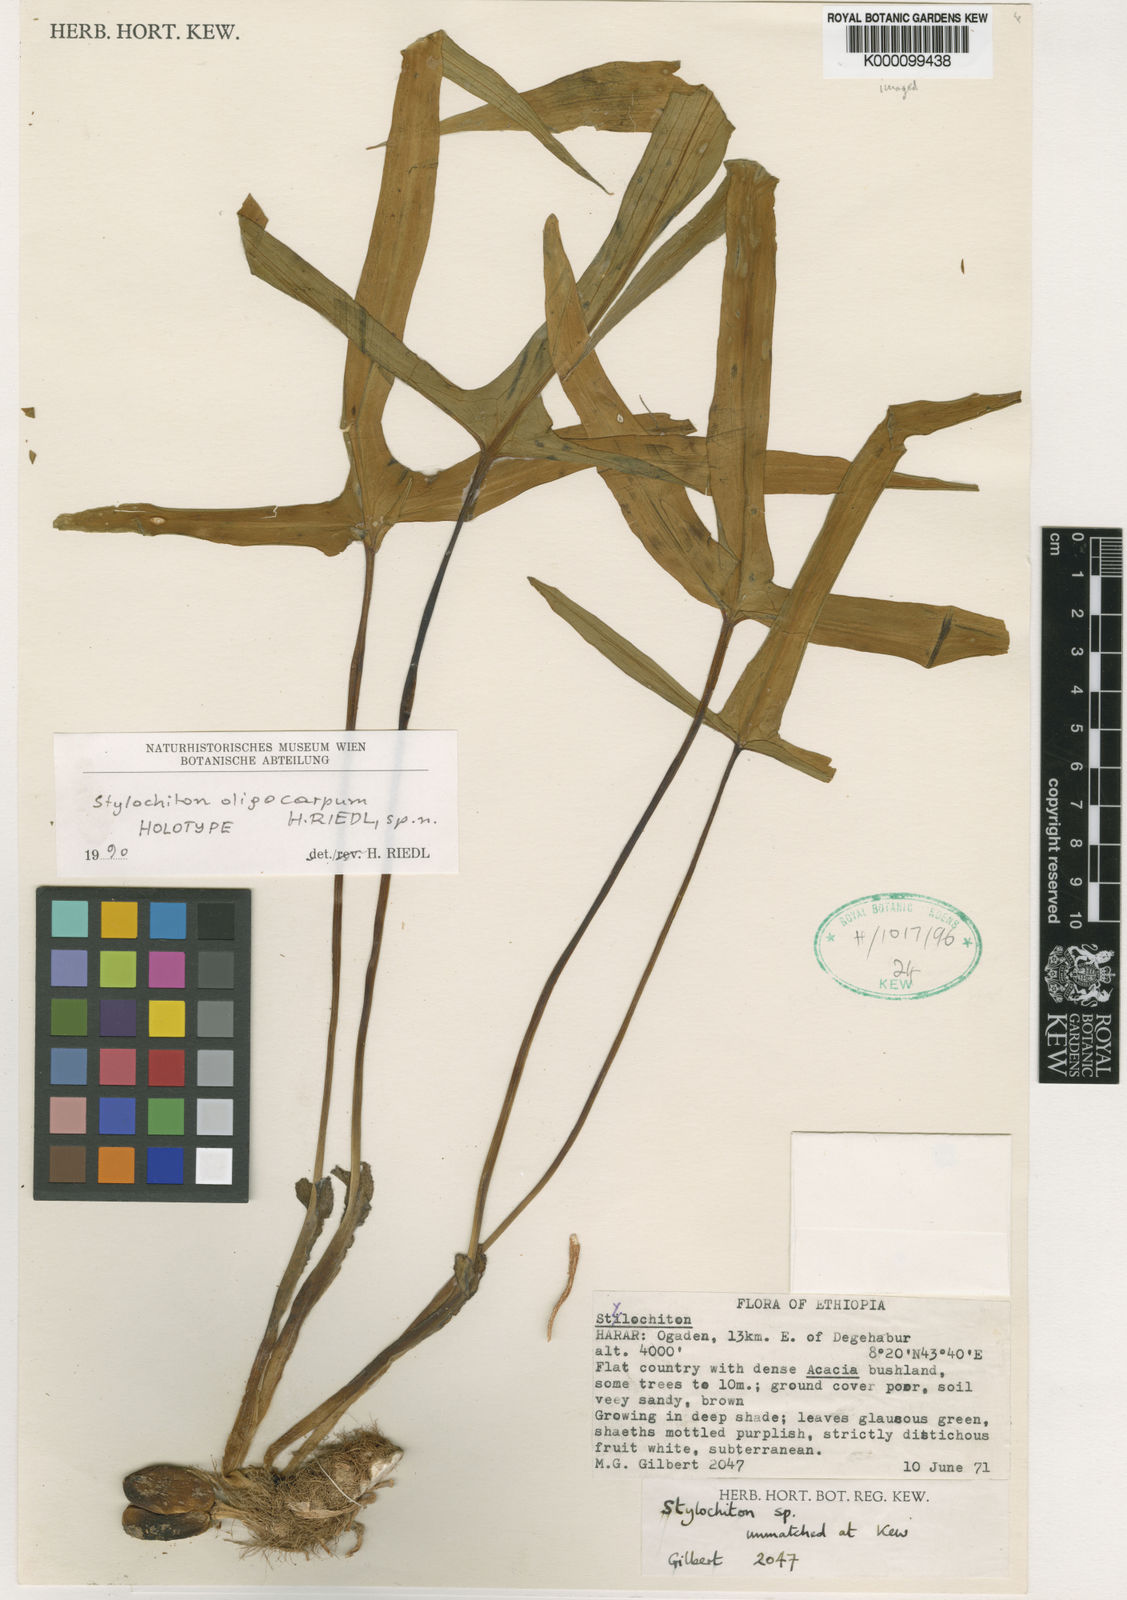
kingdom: Plantae
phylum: Tracheophyta
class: Liliopsida
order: Alismatales
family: Araceae
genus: Stylochaeton
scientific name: Stylochaeton oligocarpum
